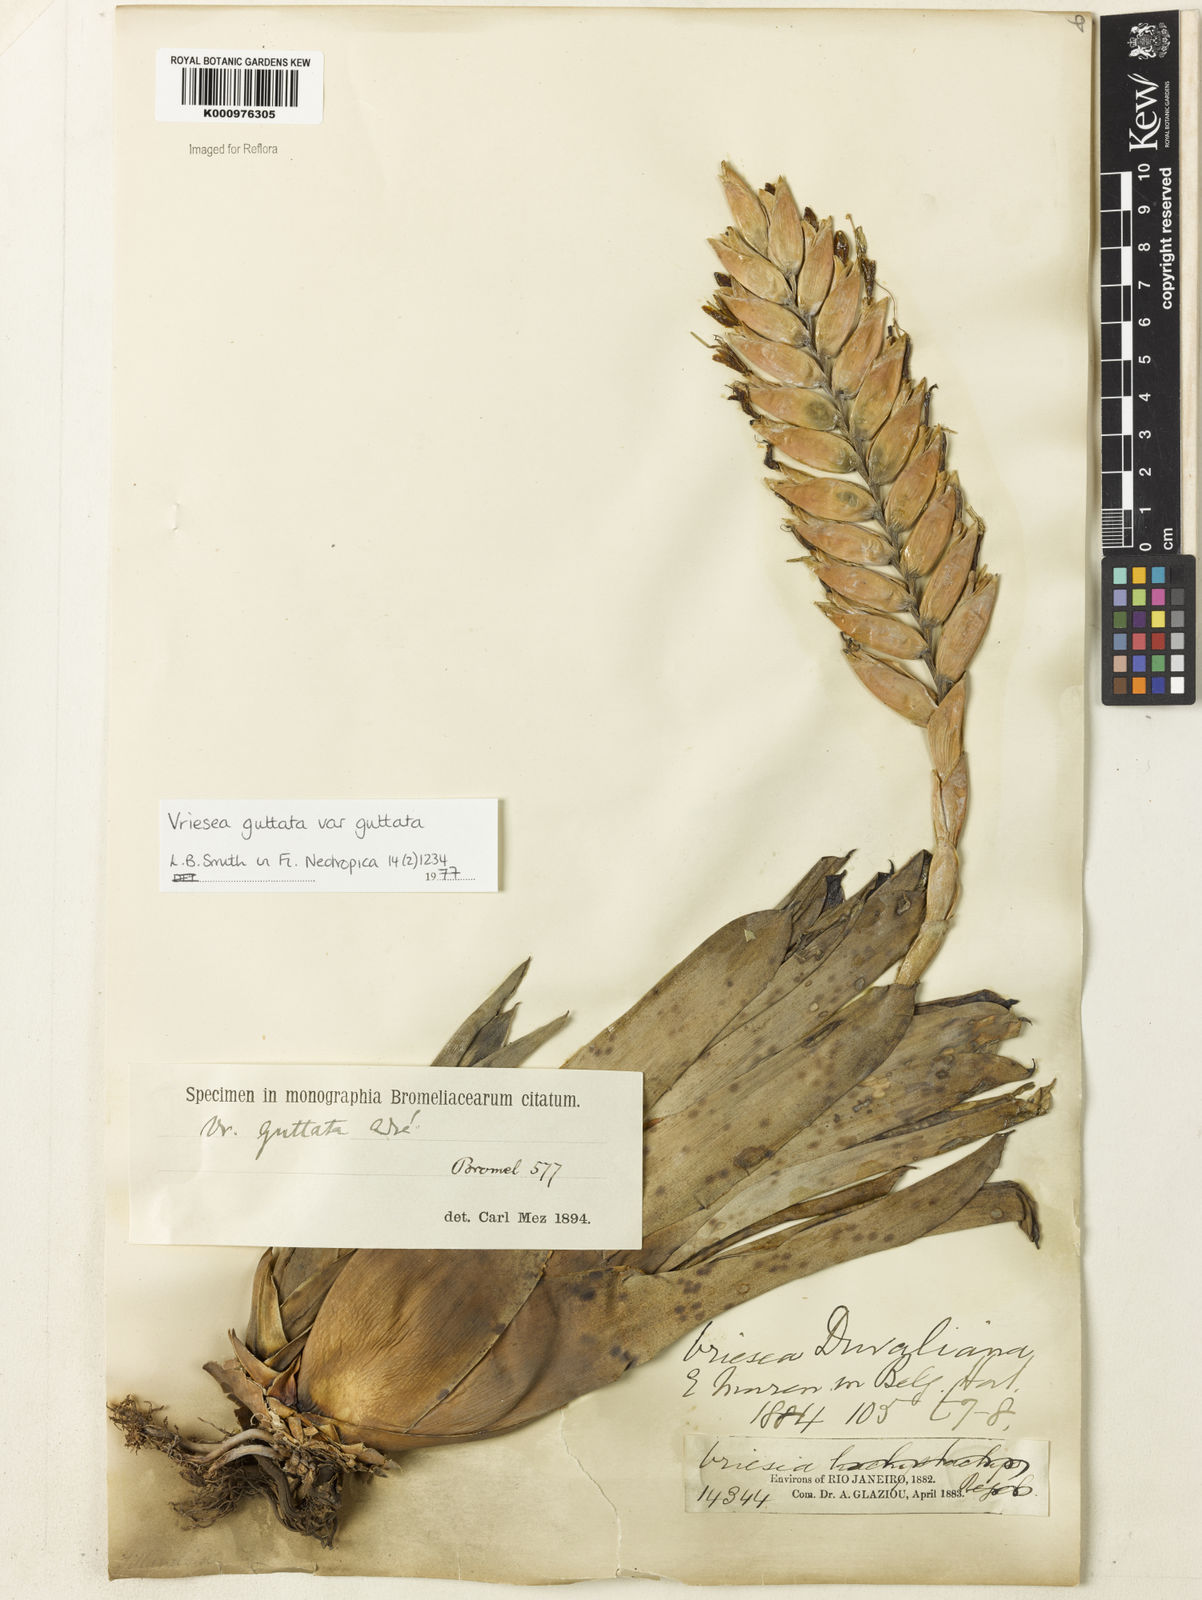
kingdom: Plantae
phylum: Tracheophyta
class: Liliopsida
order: Poales
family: Bromeliaceae
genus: Vriesea
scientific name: Vriesea
